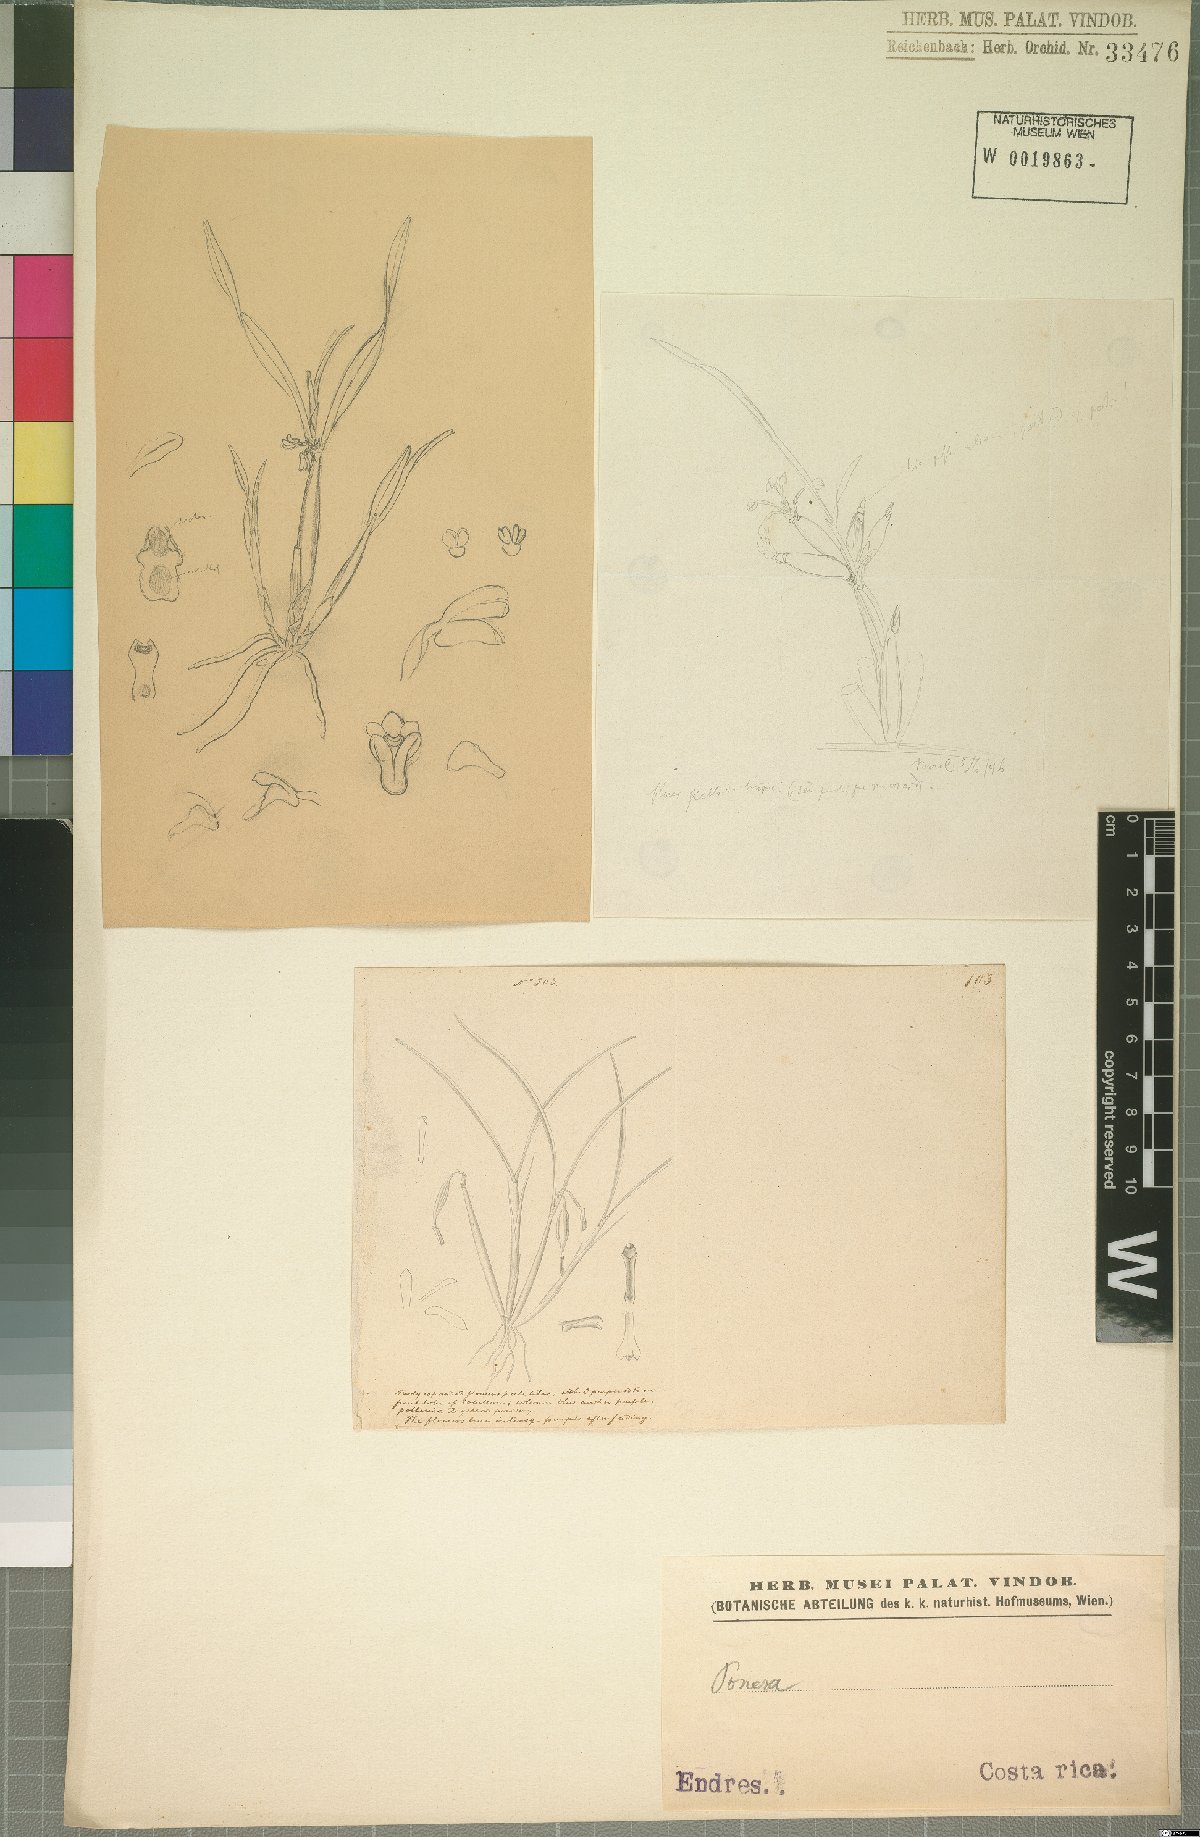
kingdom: Plantae
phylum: Tracheophyta
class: Liliopsida
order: Asparagales
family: Orchidaceae
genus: Ponera
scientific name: Ponera
